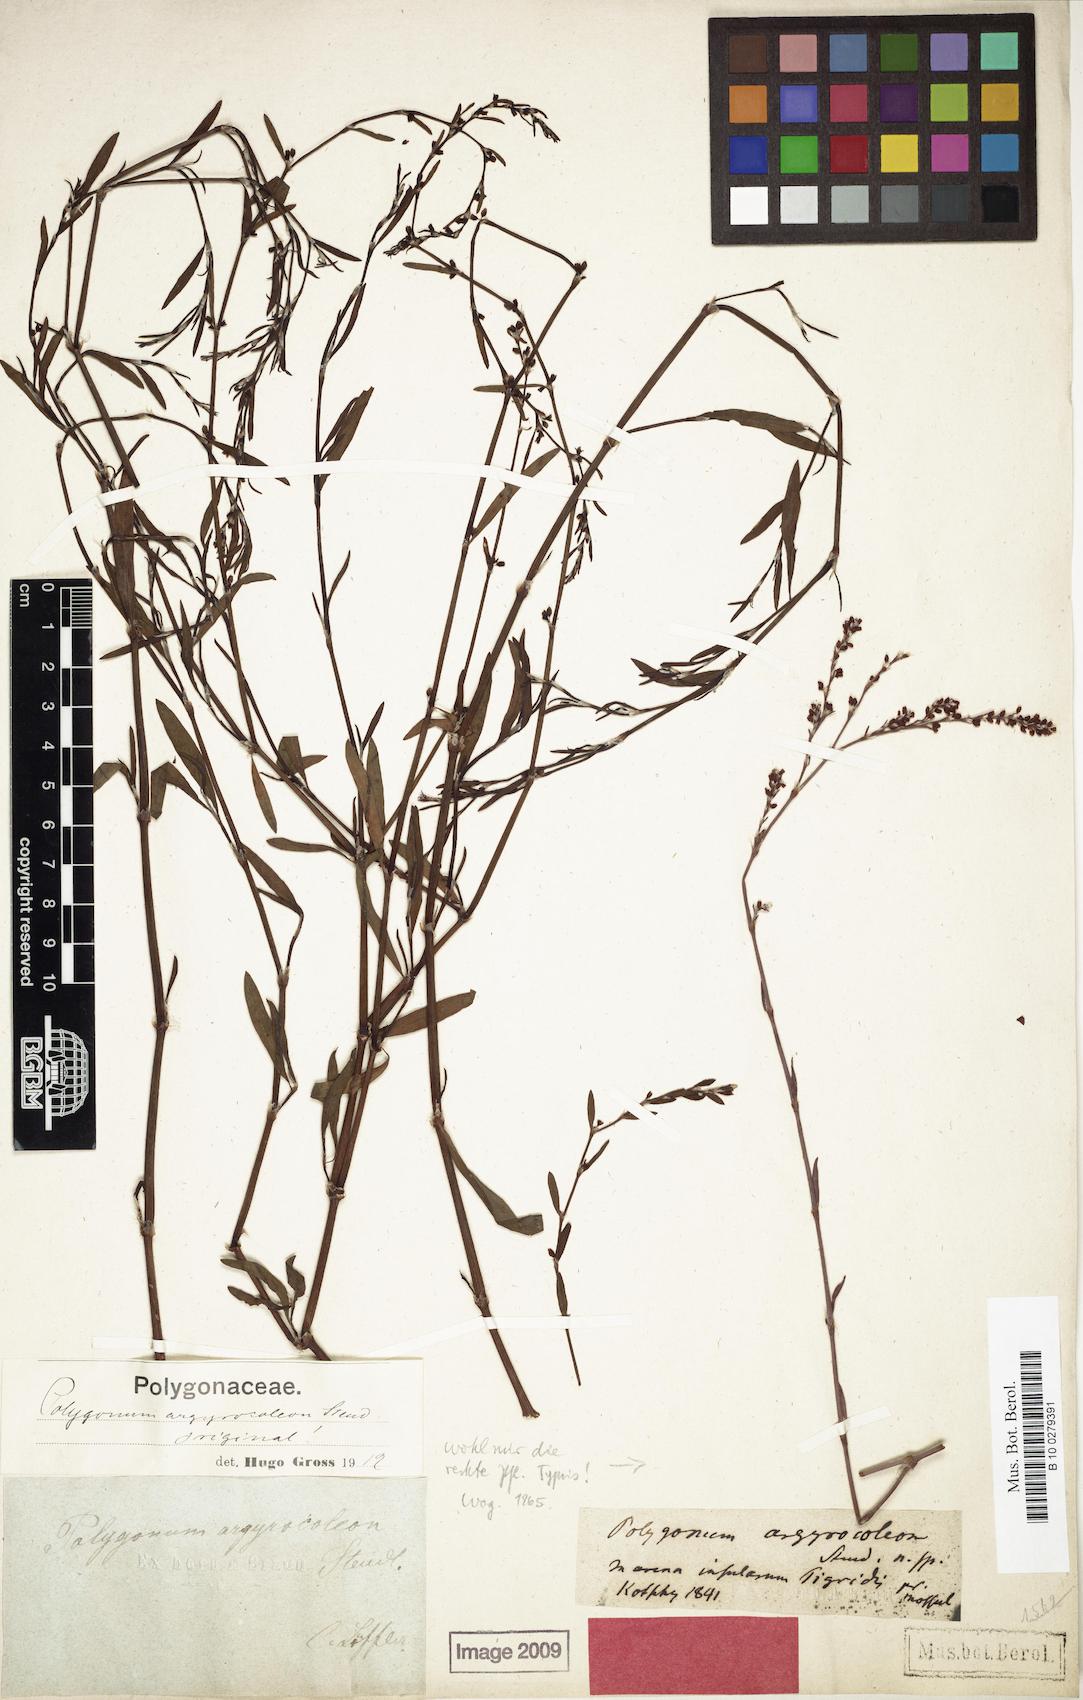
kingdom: Plantae
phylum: Tracheophyta
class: Magnoliopsida
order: Caryophyllales
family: Polygonaceae
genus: Polygonum
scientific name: Polygonum argyrocoleum
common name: Silversheath knotweed
